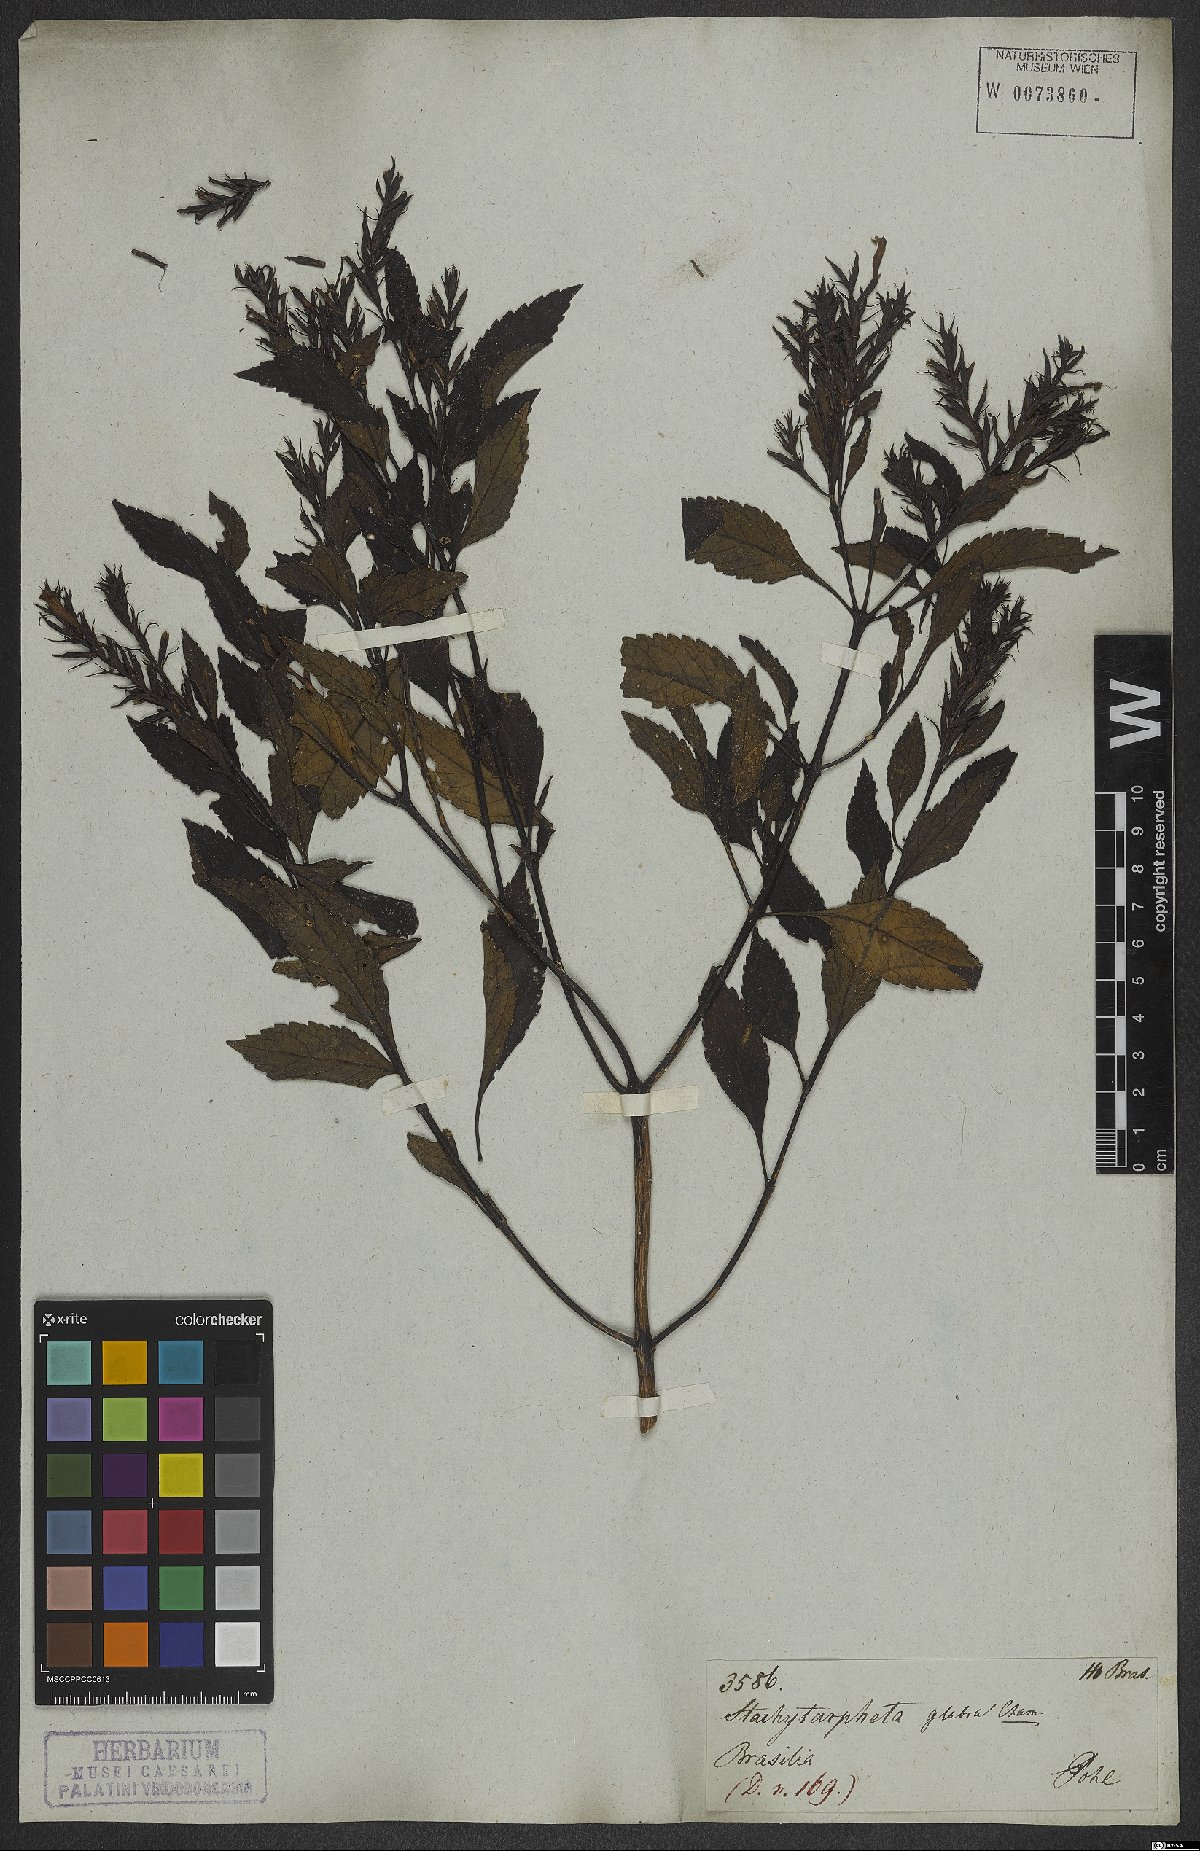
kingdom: Plantae
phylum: Tracheophyta
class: Magnoliopsida
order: Lamiales
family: Verbenaceae
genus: Stachytarpheta
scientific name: Stachytarpheta glabra
